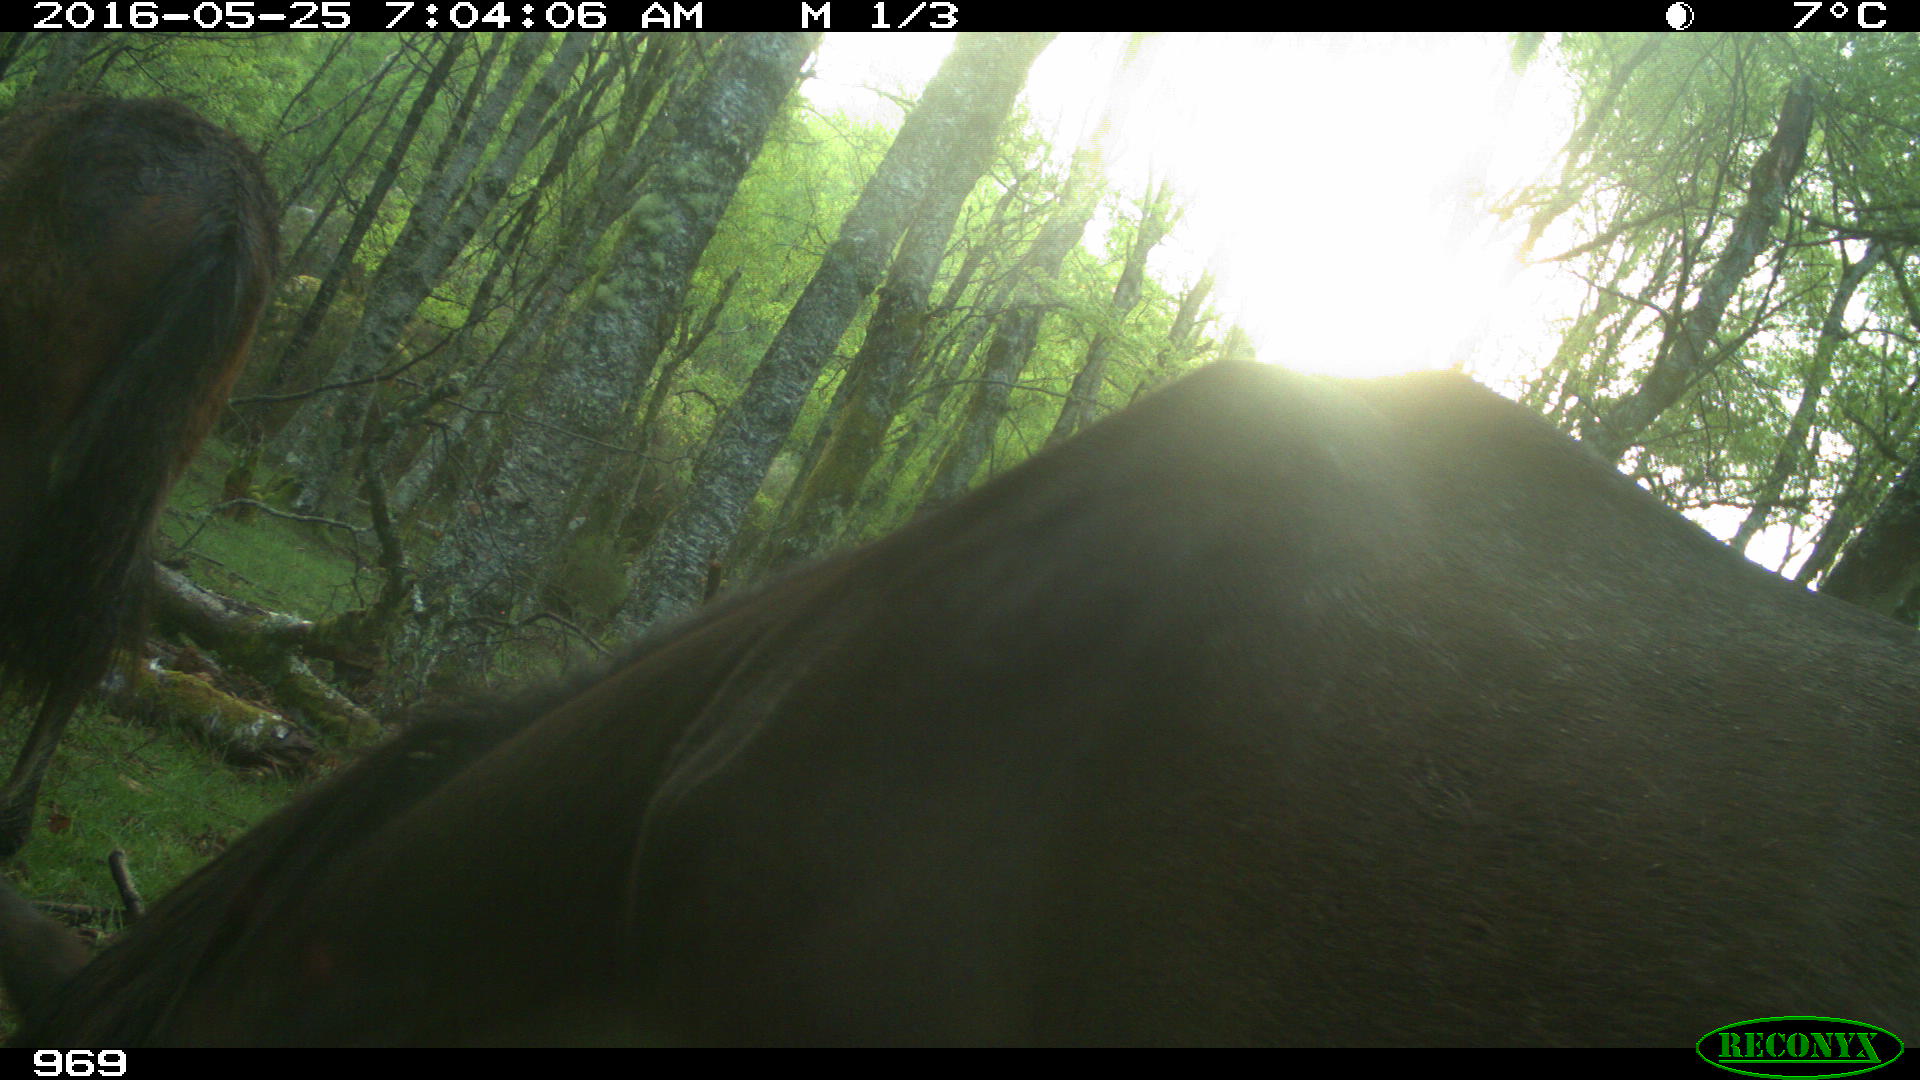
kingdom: Animalia
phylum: Chordata
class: Mammalia
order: Perissodactyla
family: Equidae
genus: Equus
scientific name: Equus caballus
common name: Horse
